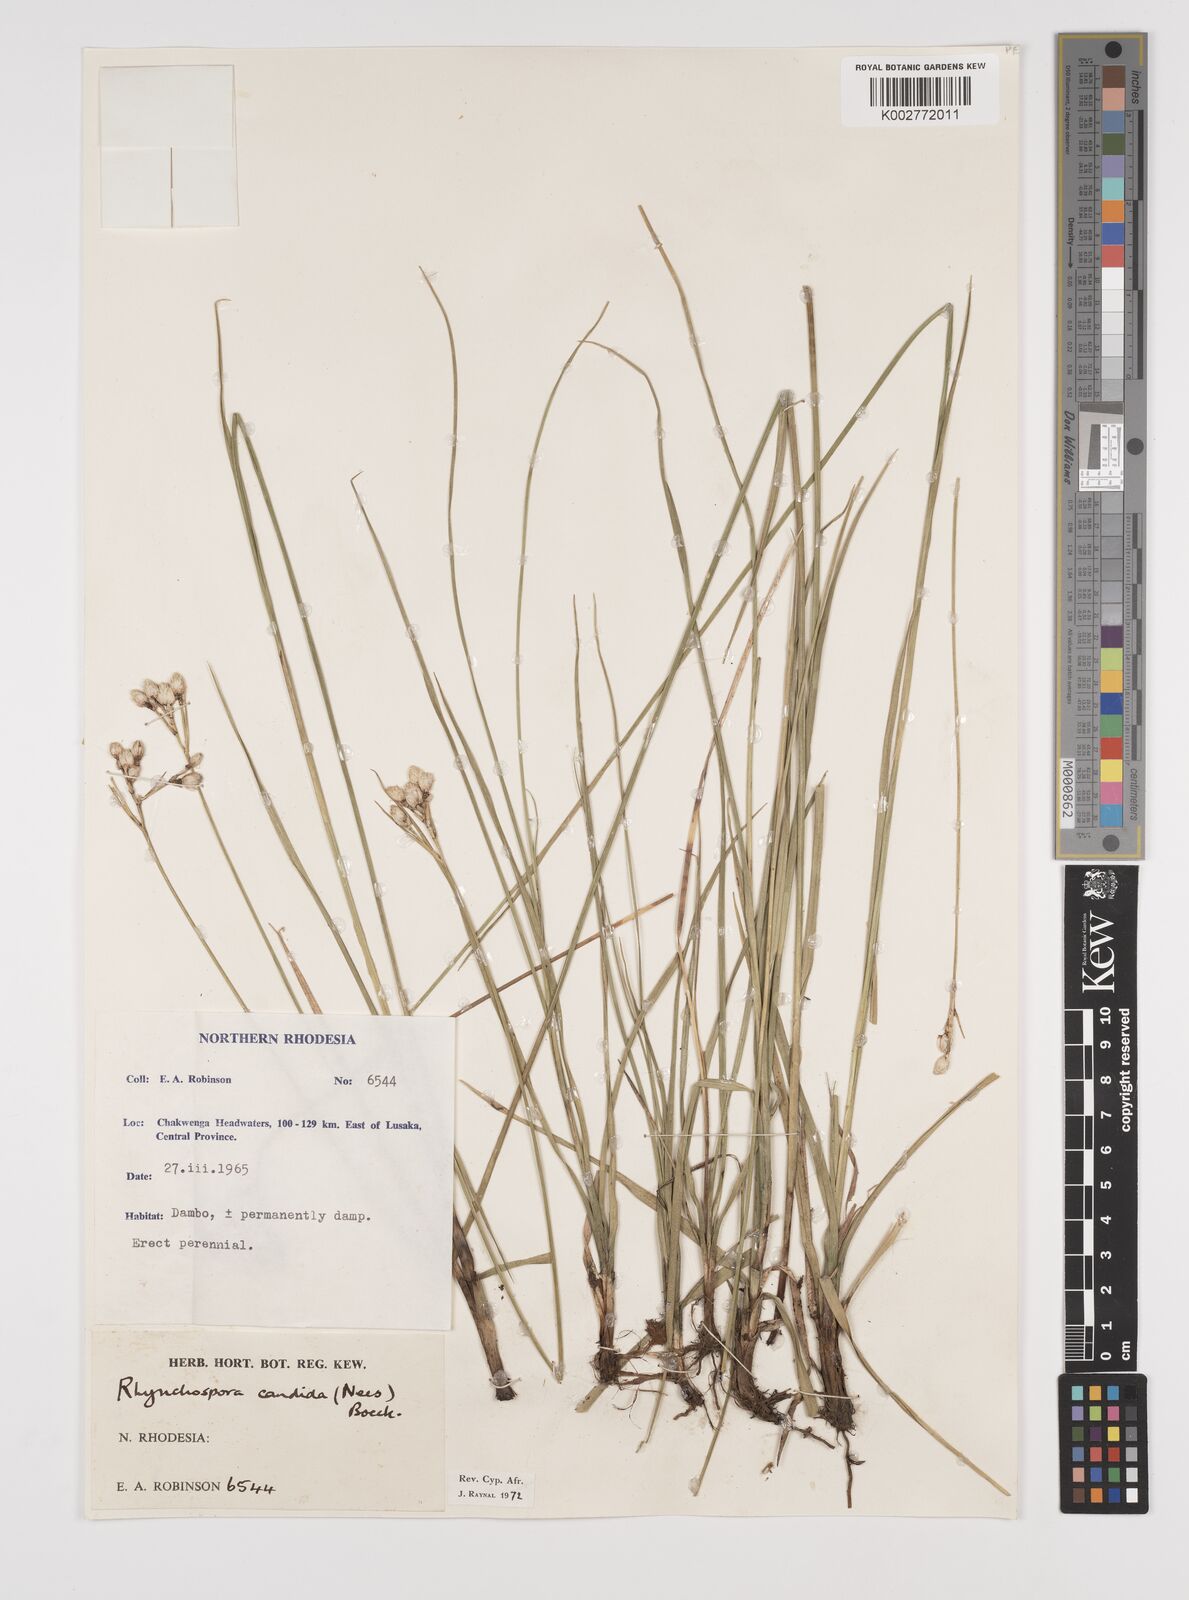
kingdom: Plantae
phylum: Tracheophyta
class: Liliopsida
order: Poales
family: Cyperaceae
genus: Rhynchospora
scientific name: Rhynchospora candida
